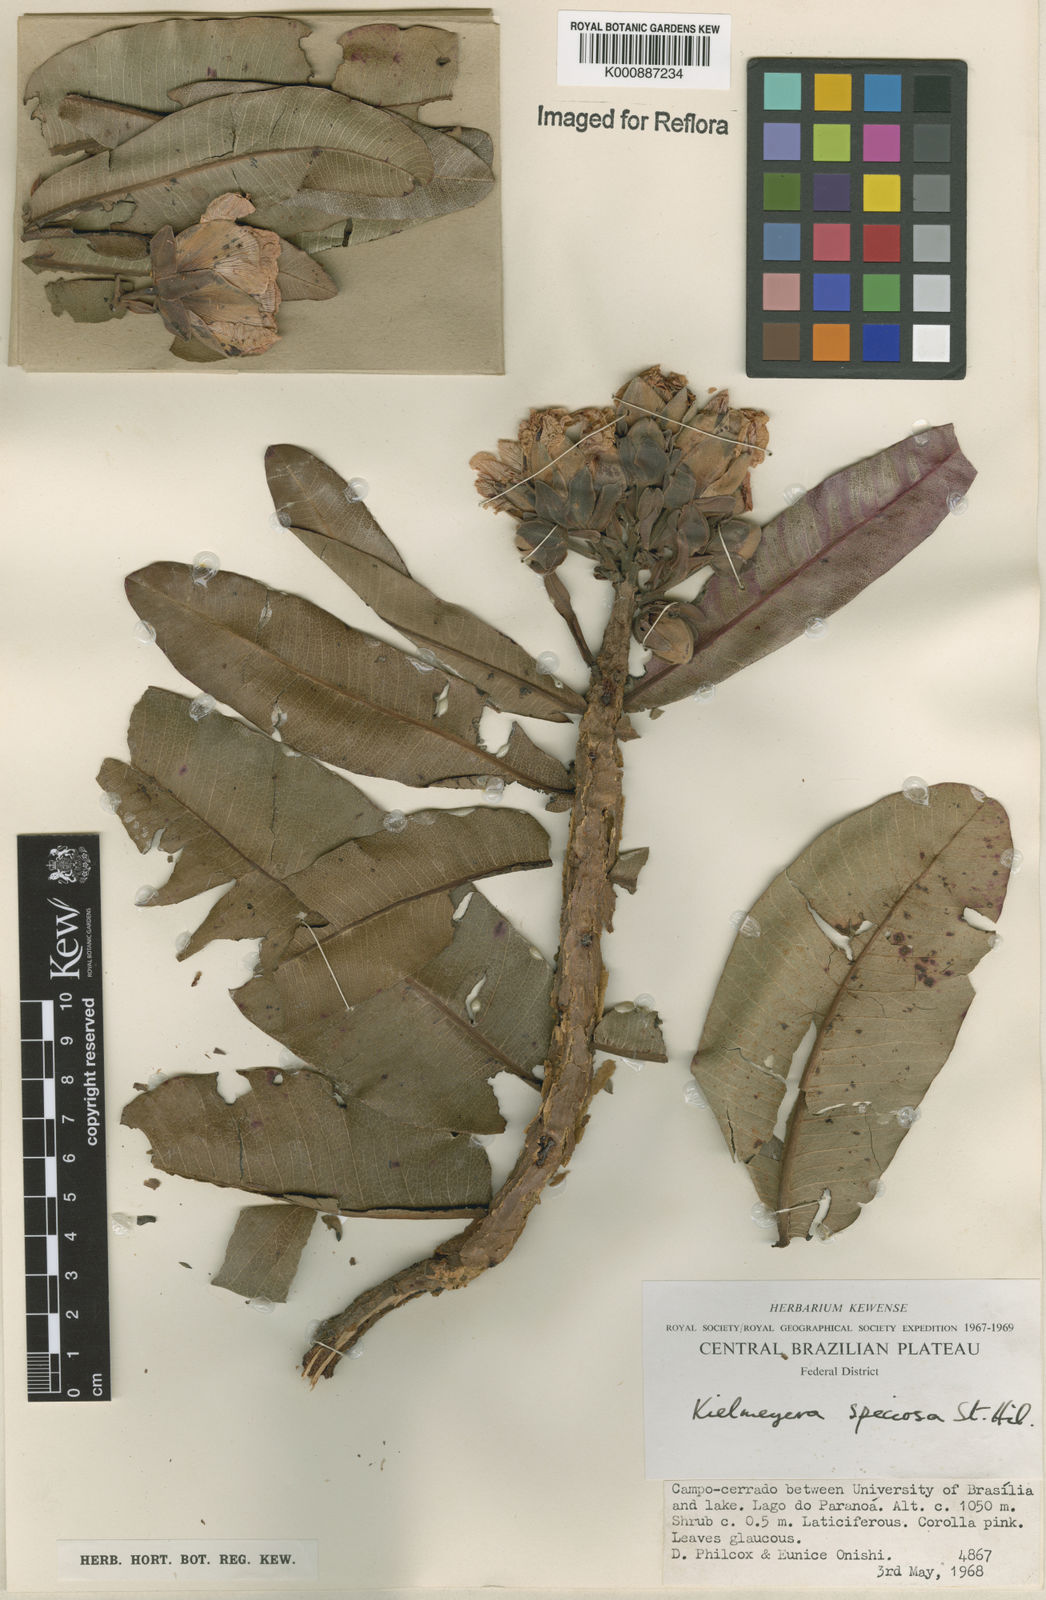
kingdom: Plantae
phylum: Tracheophyta
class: Magnoliopsida
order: Malpighiales
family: Calophyllaceae
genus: Kielmeyera
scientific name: Kielmeyera speciosa
